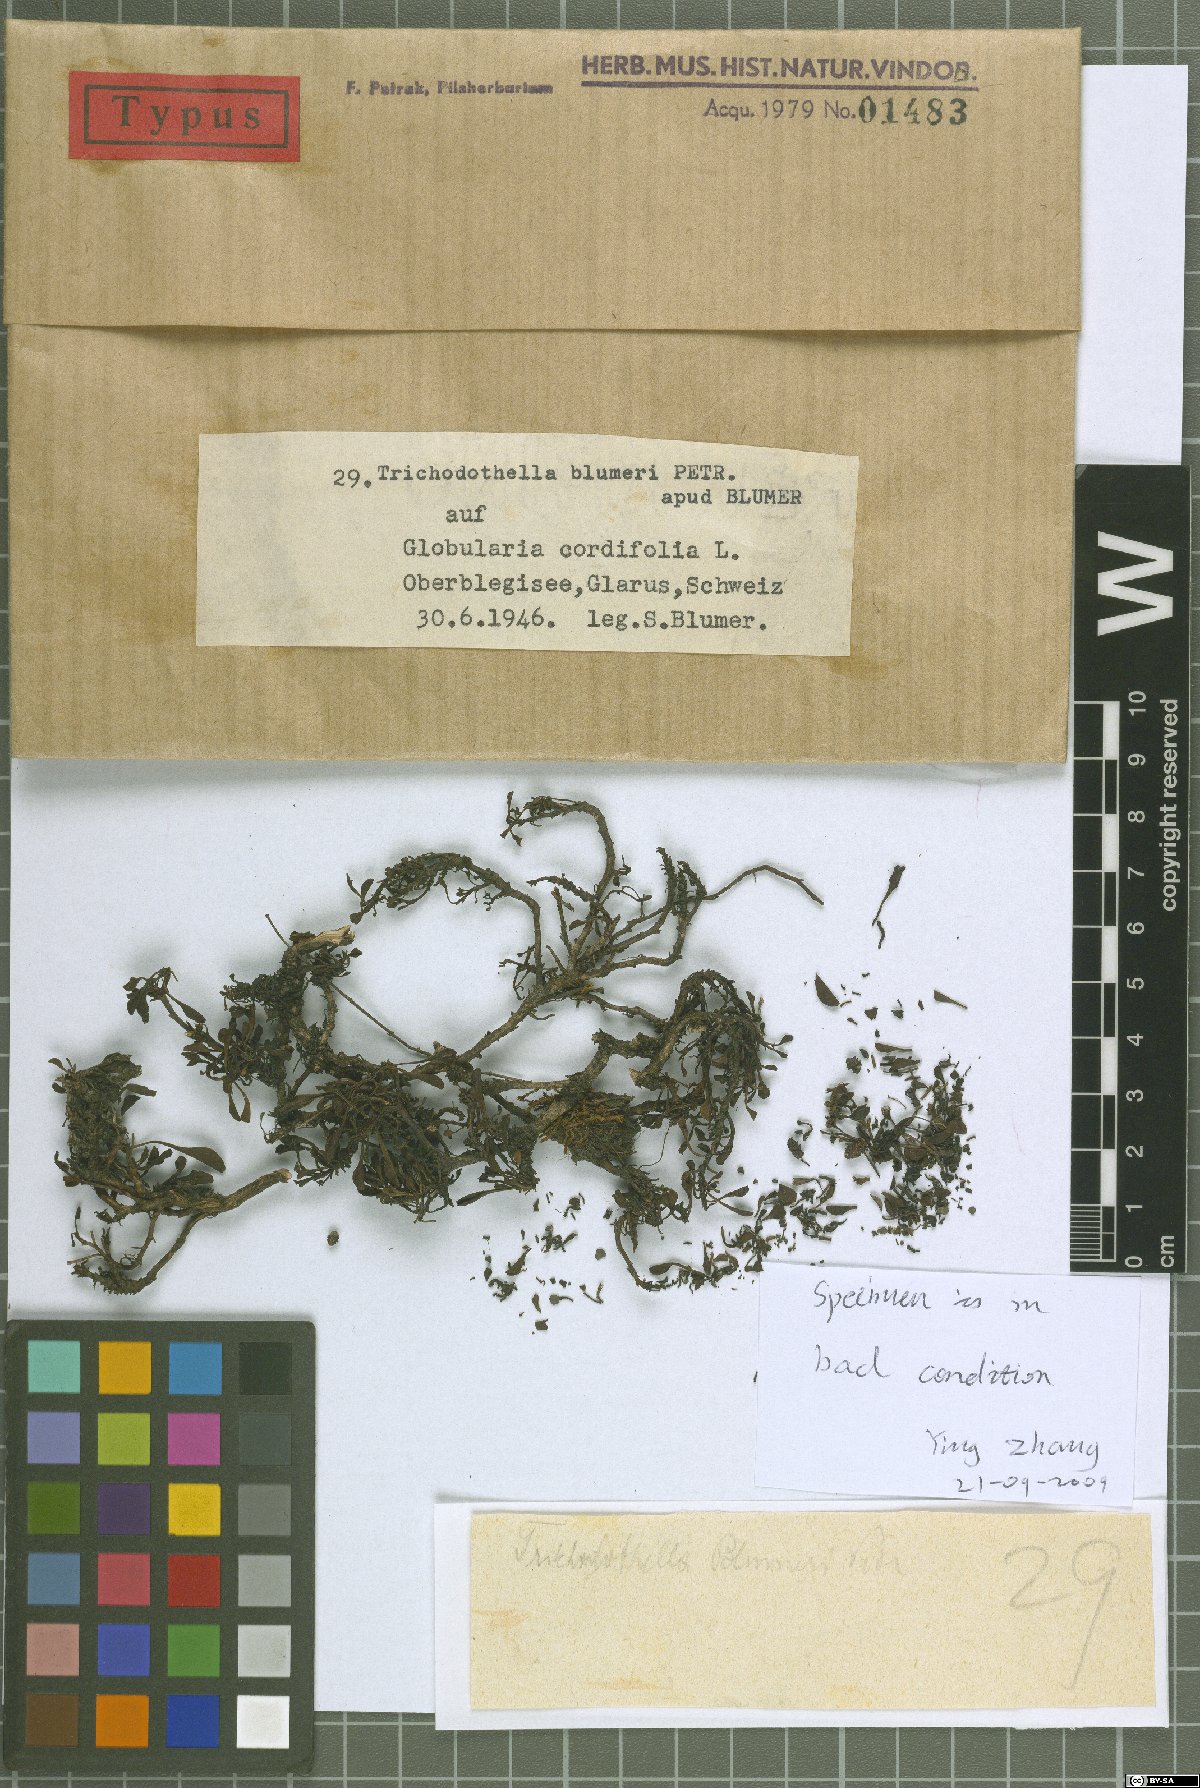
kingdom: Fungi
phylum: Ascomycota
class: Dothideomycetes
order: Venturiales
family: Venturiaceae
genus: Trichodothella
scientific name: Trichodothella blumeri
